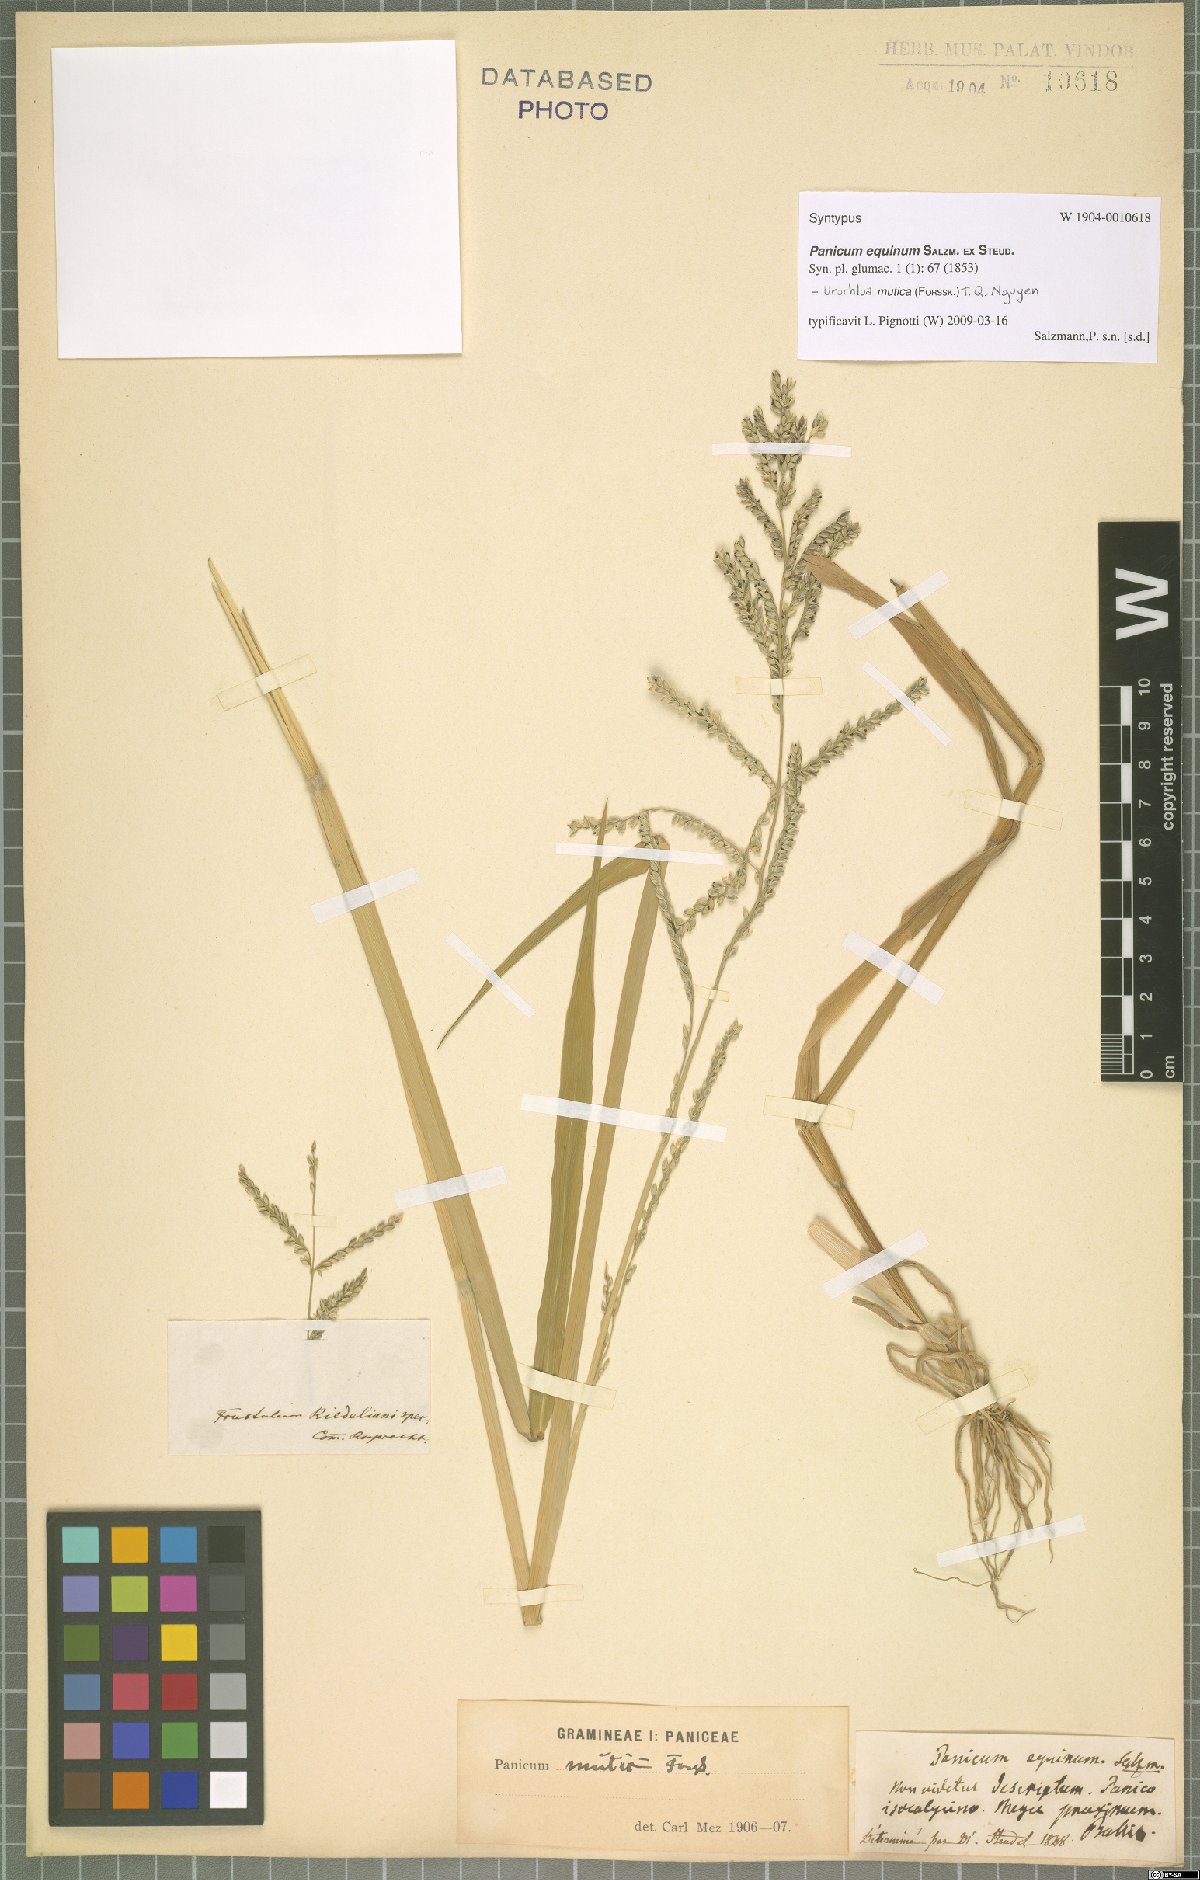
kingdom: Plantae
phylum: Tracheophyta
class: Liliopsida
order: Poales
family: Poaceae
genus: Urochloa
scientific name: Urochloa mutica
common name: Para grass
